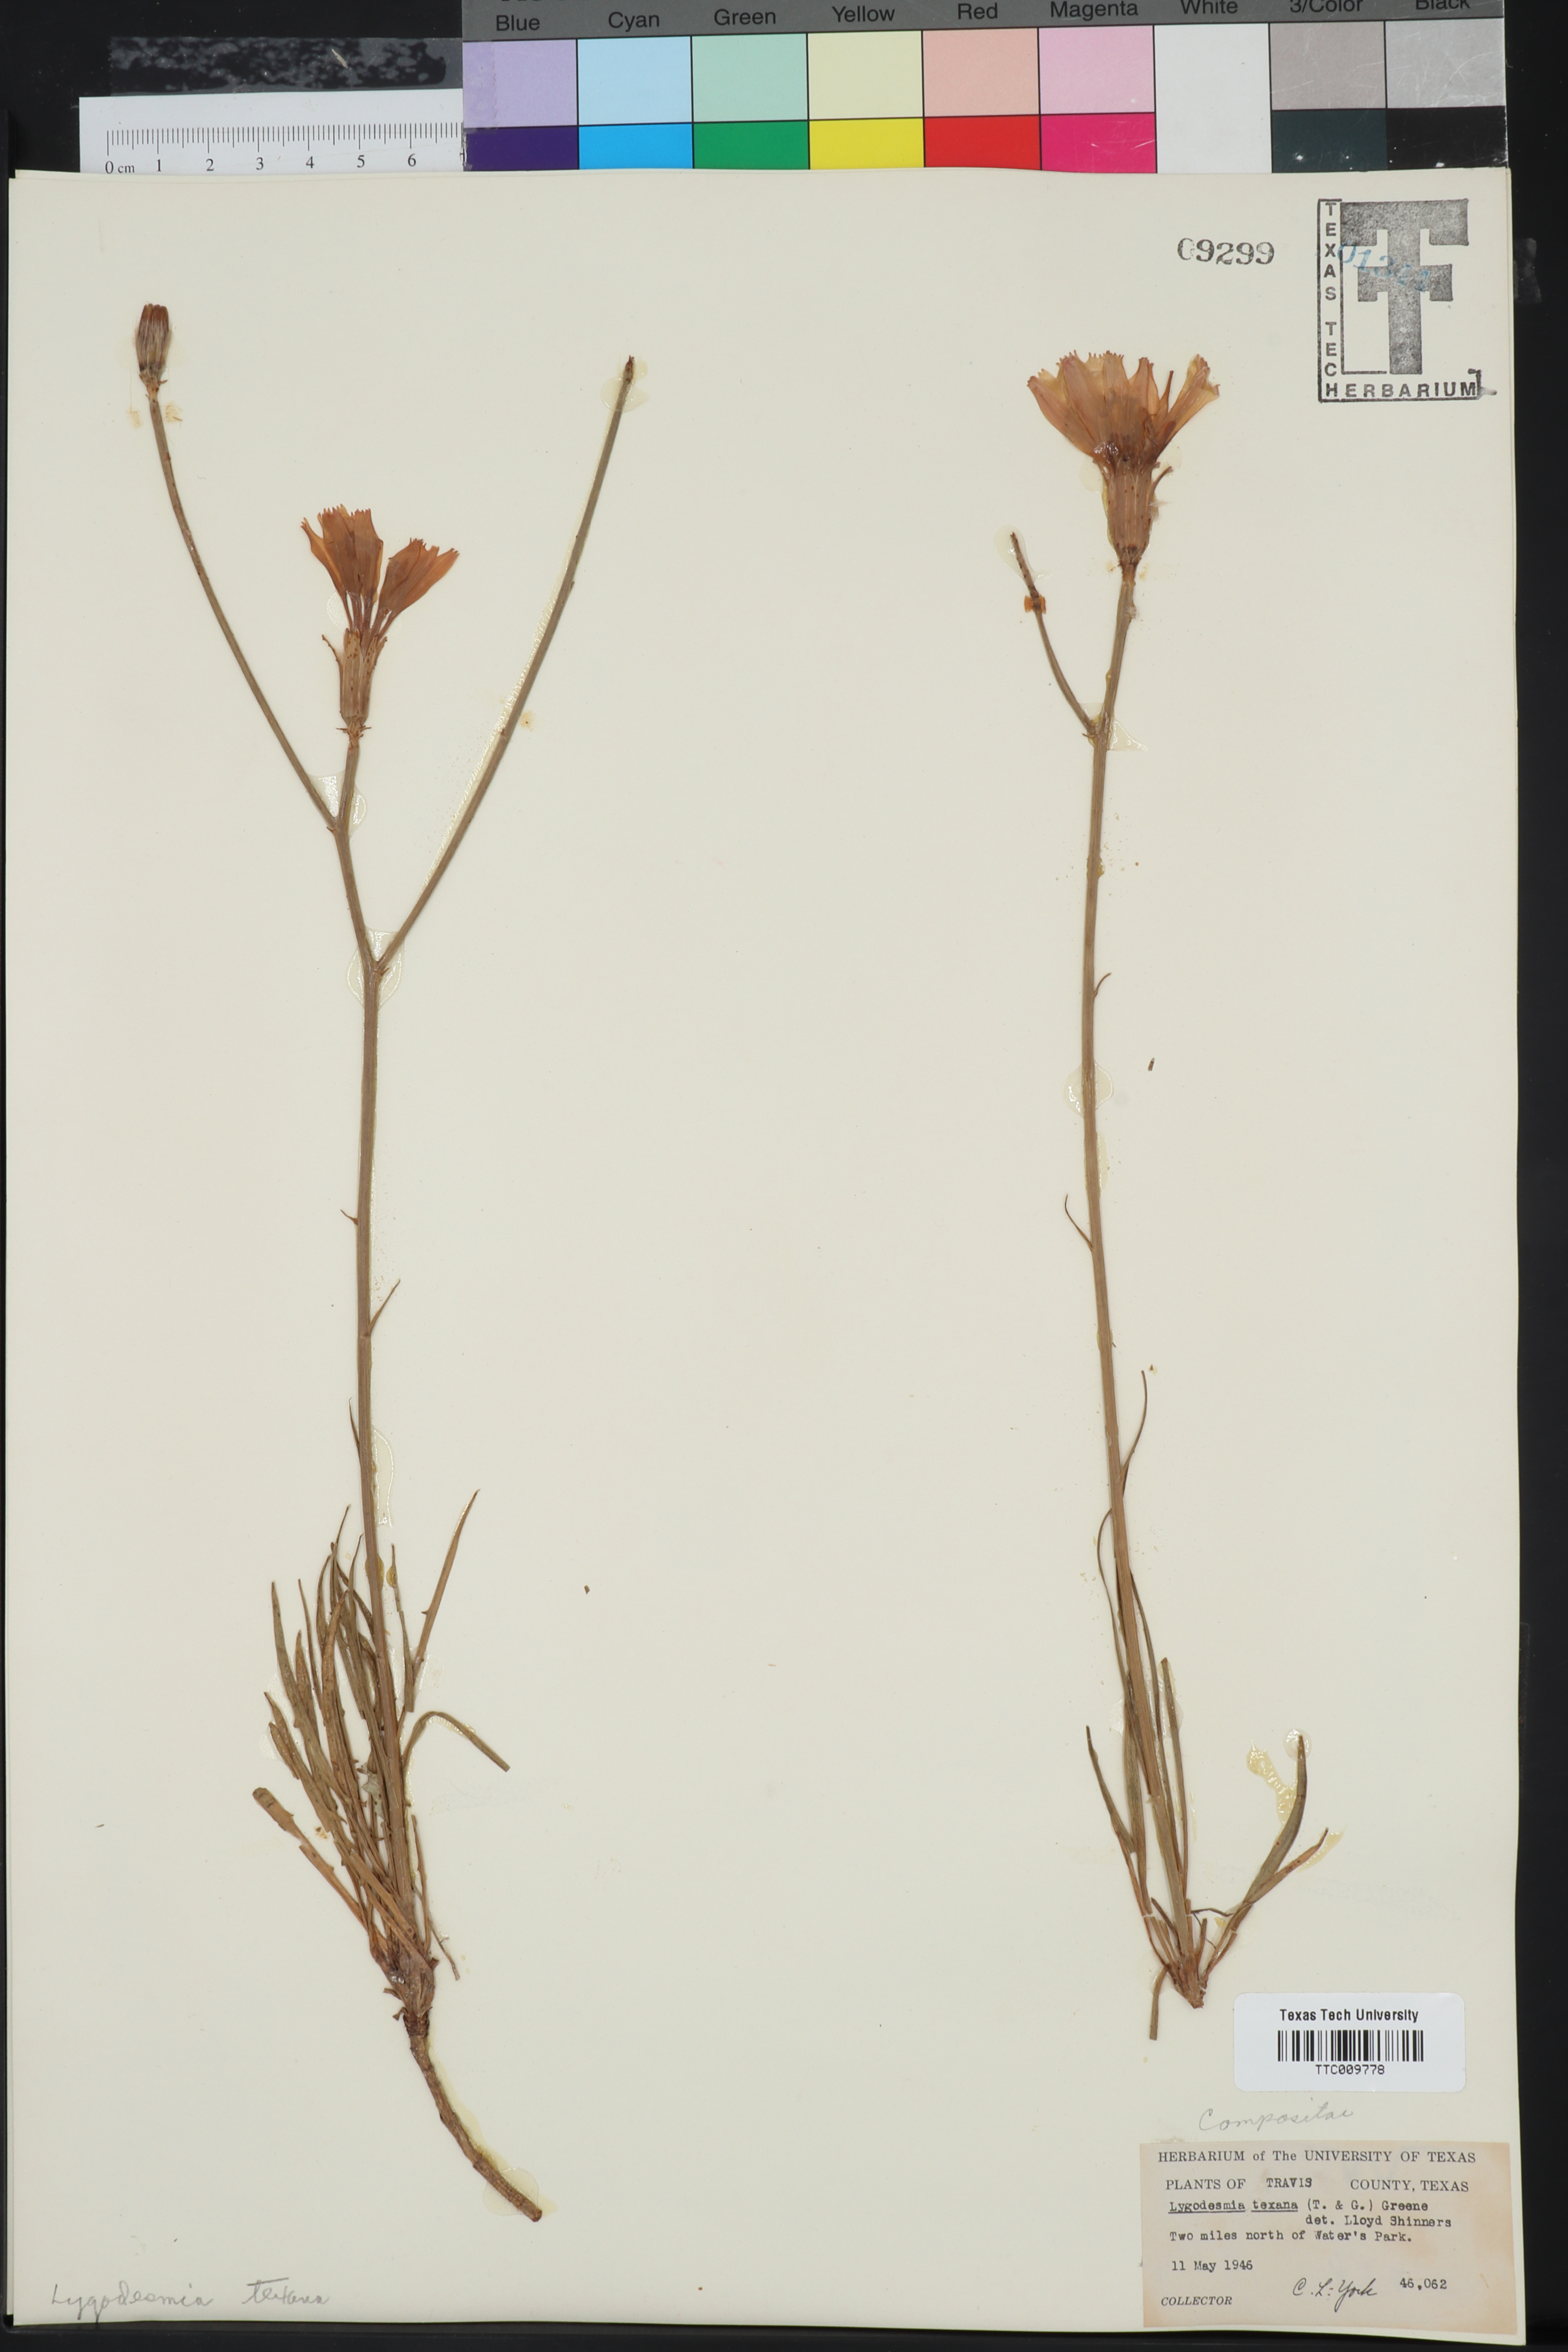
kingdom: Plantae
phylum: Tracheophyta
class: Magnoliopsida
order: Asterales
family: Asteraceae
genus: Lygodesmia
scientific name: Lygodesmia texana
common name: Texas skeleton-plant
